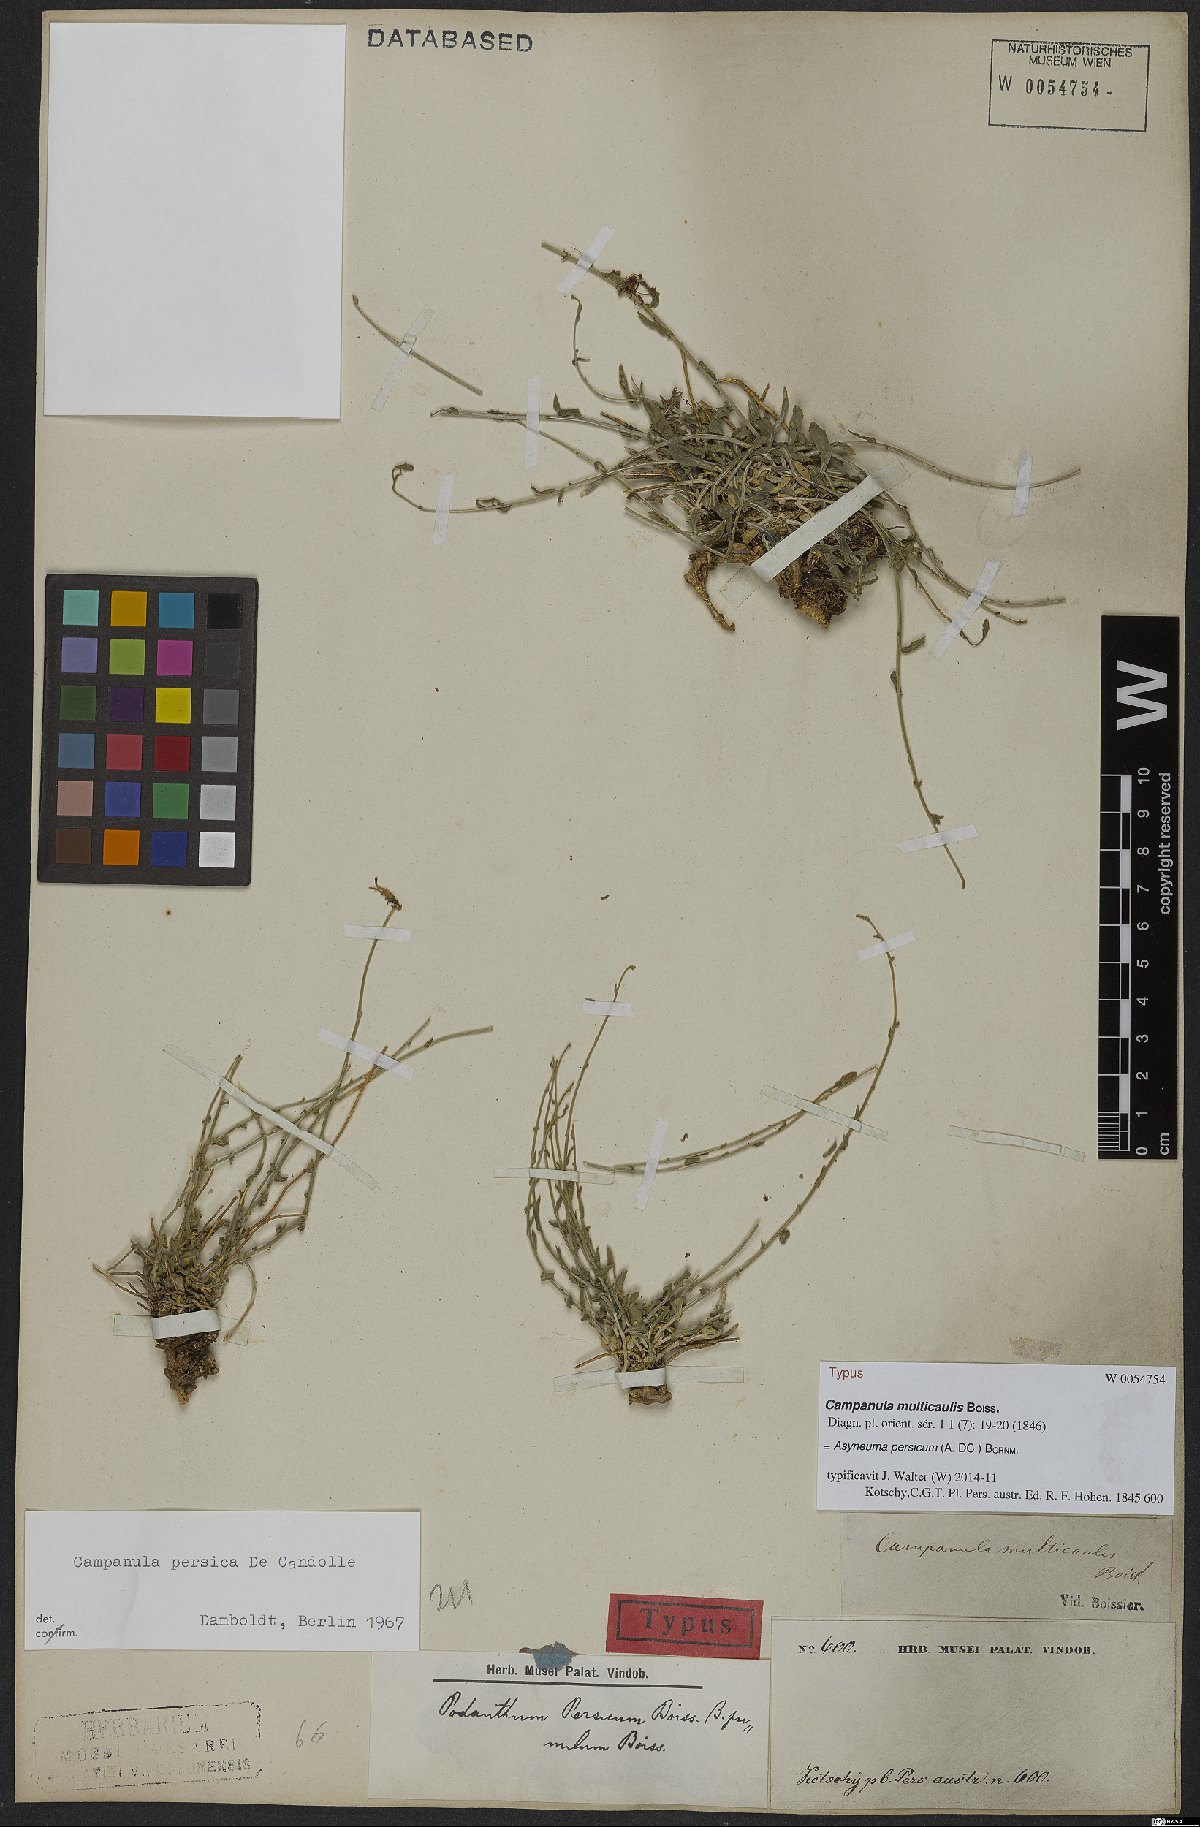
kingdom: Plantae
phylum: Tracheophyta
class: Magnoliopsida
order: Asterales
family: Campanulaceae
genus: Asyneuma
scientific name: Asyneuma persicum
